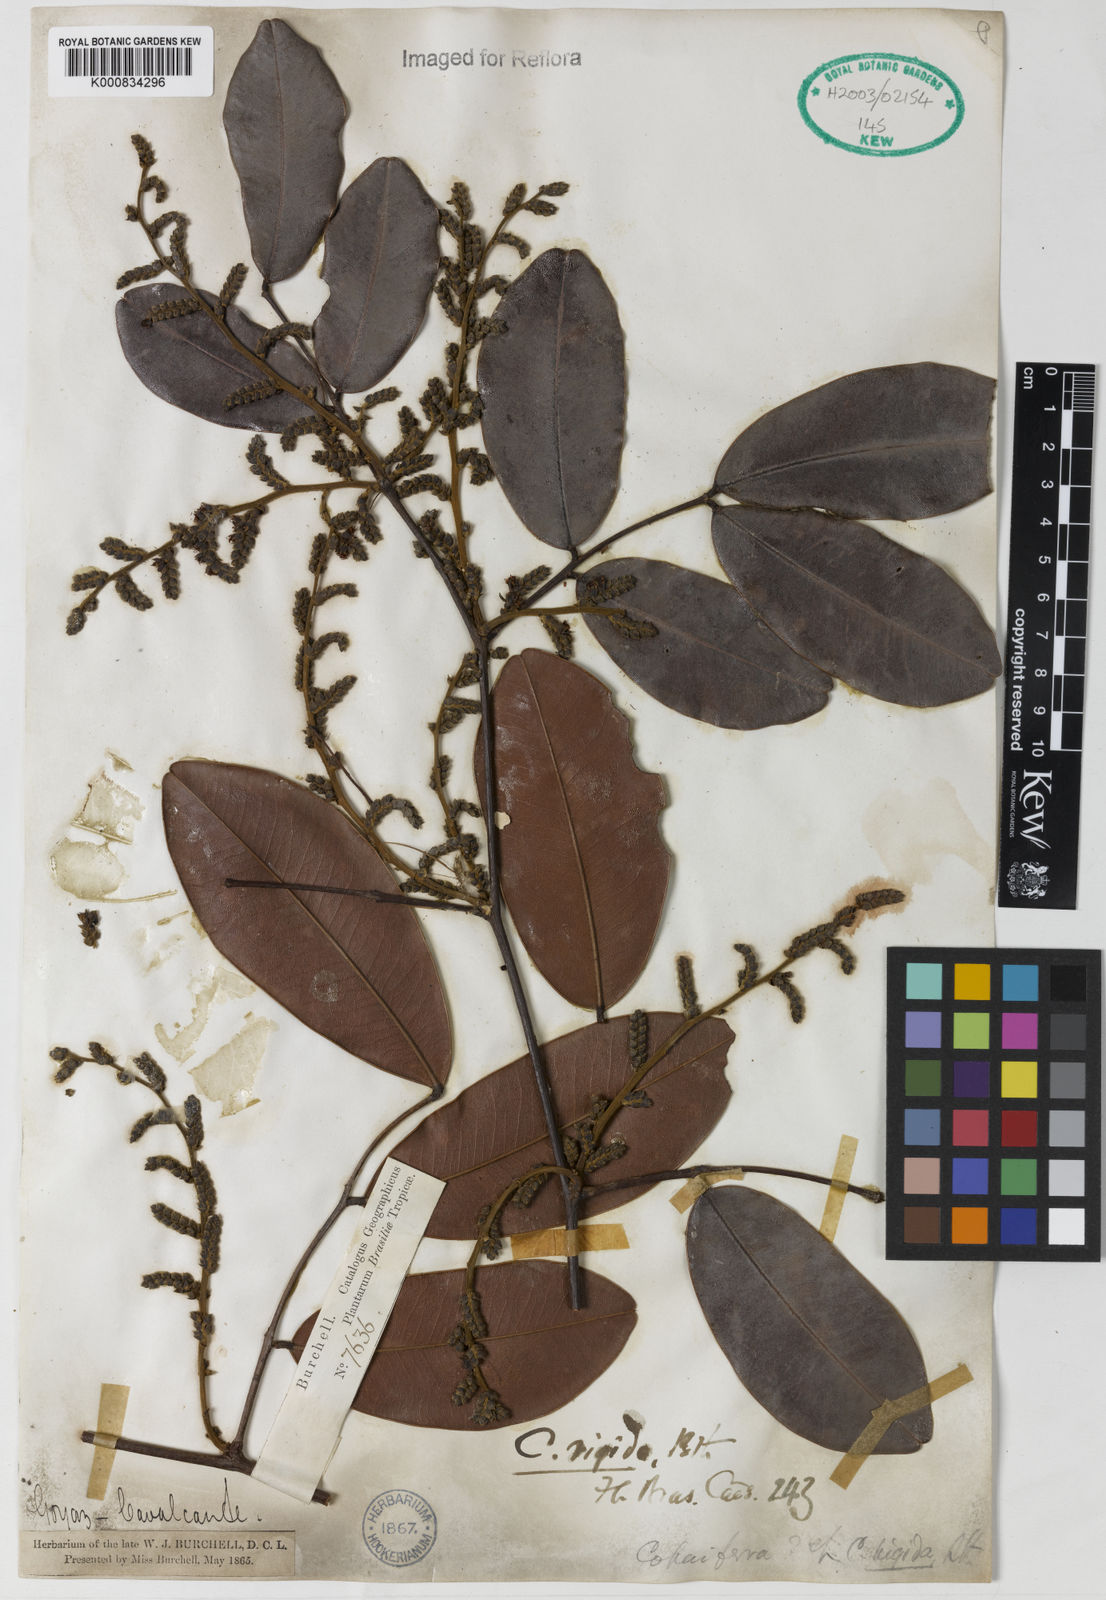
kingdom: Plantae
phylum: Tracheophyta
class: Magnoliopsida
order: Fabales
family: Fabaceae
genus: Copaifera
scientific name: Copaifera martii
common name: Copaiba
